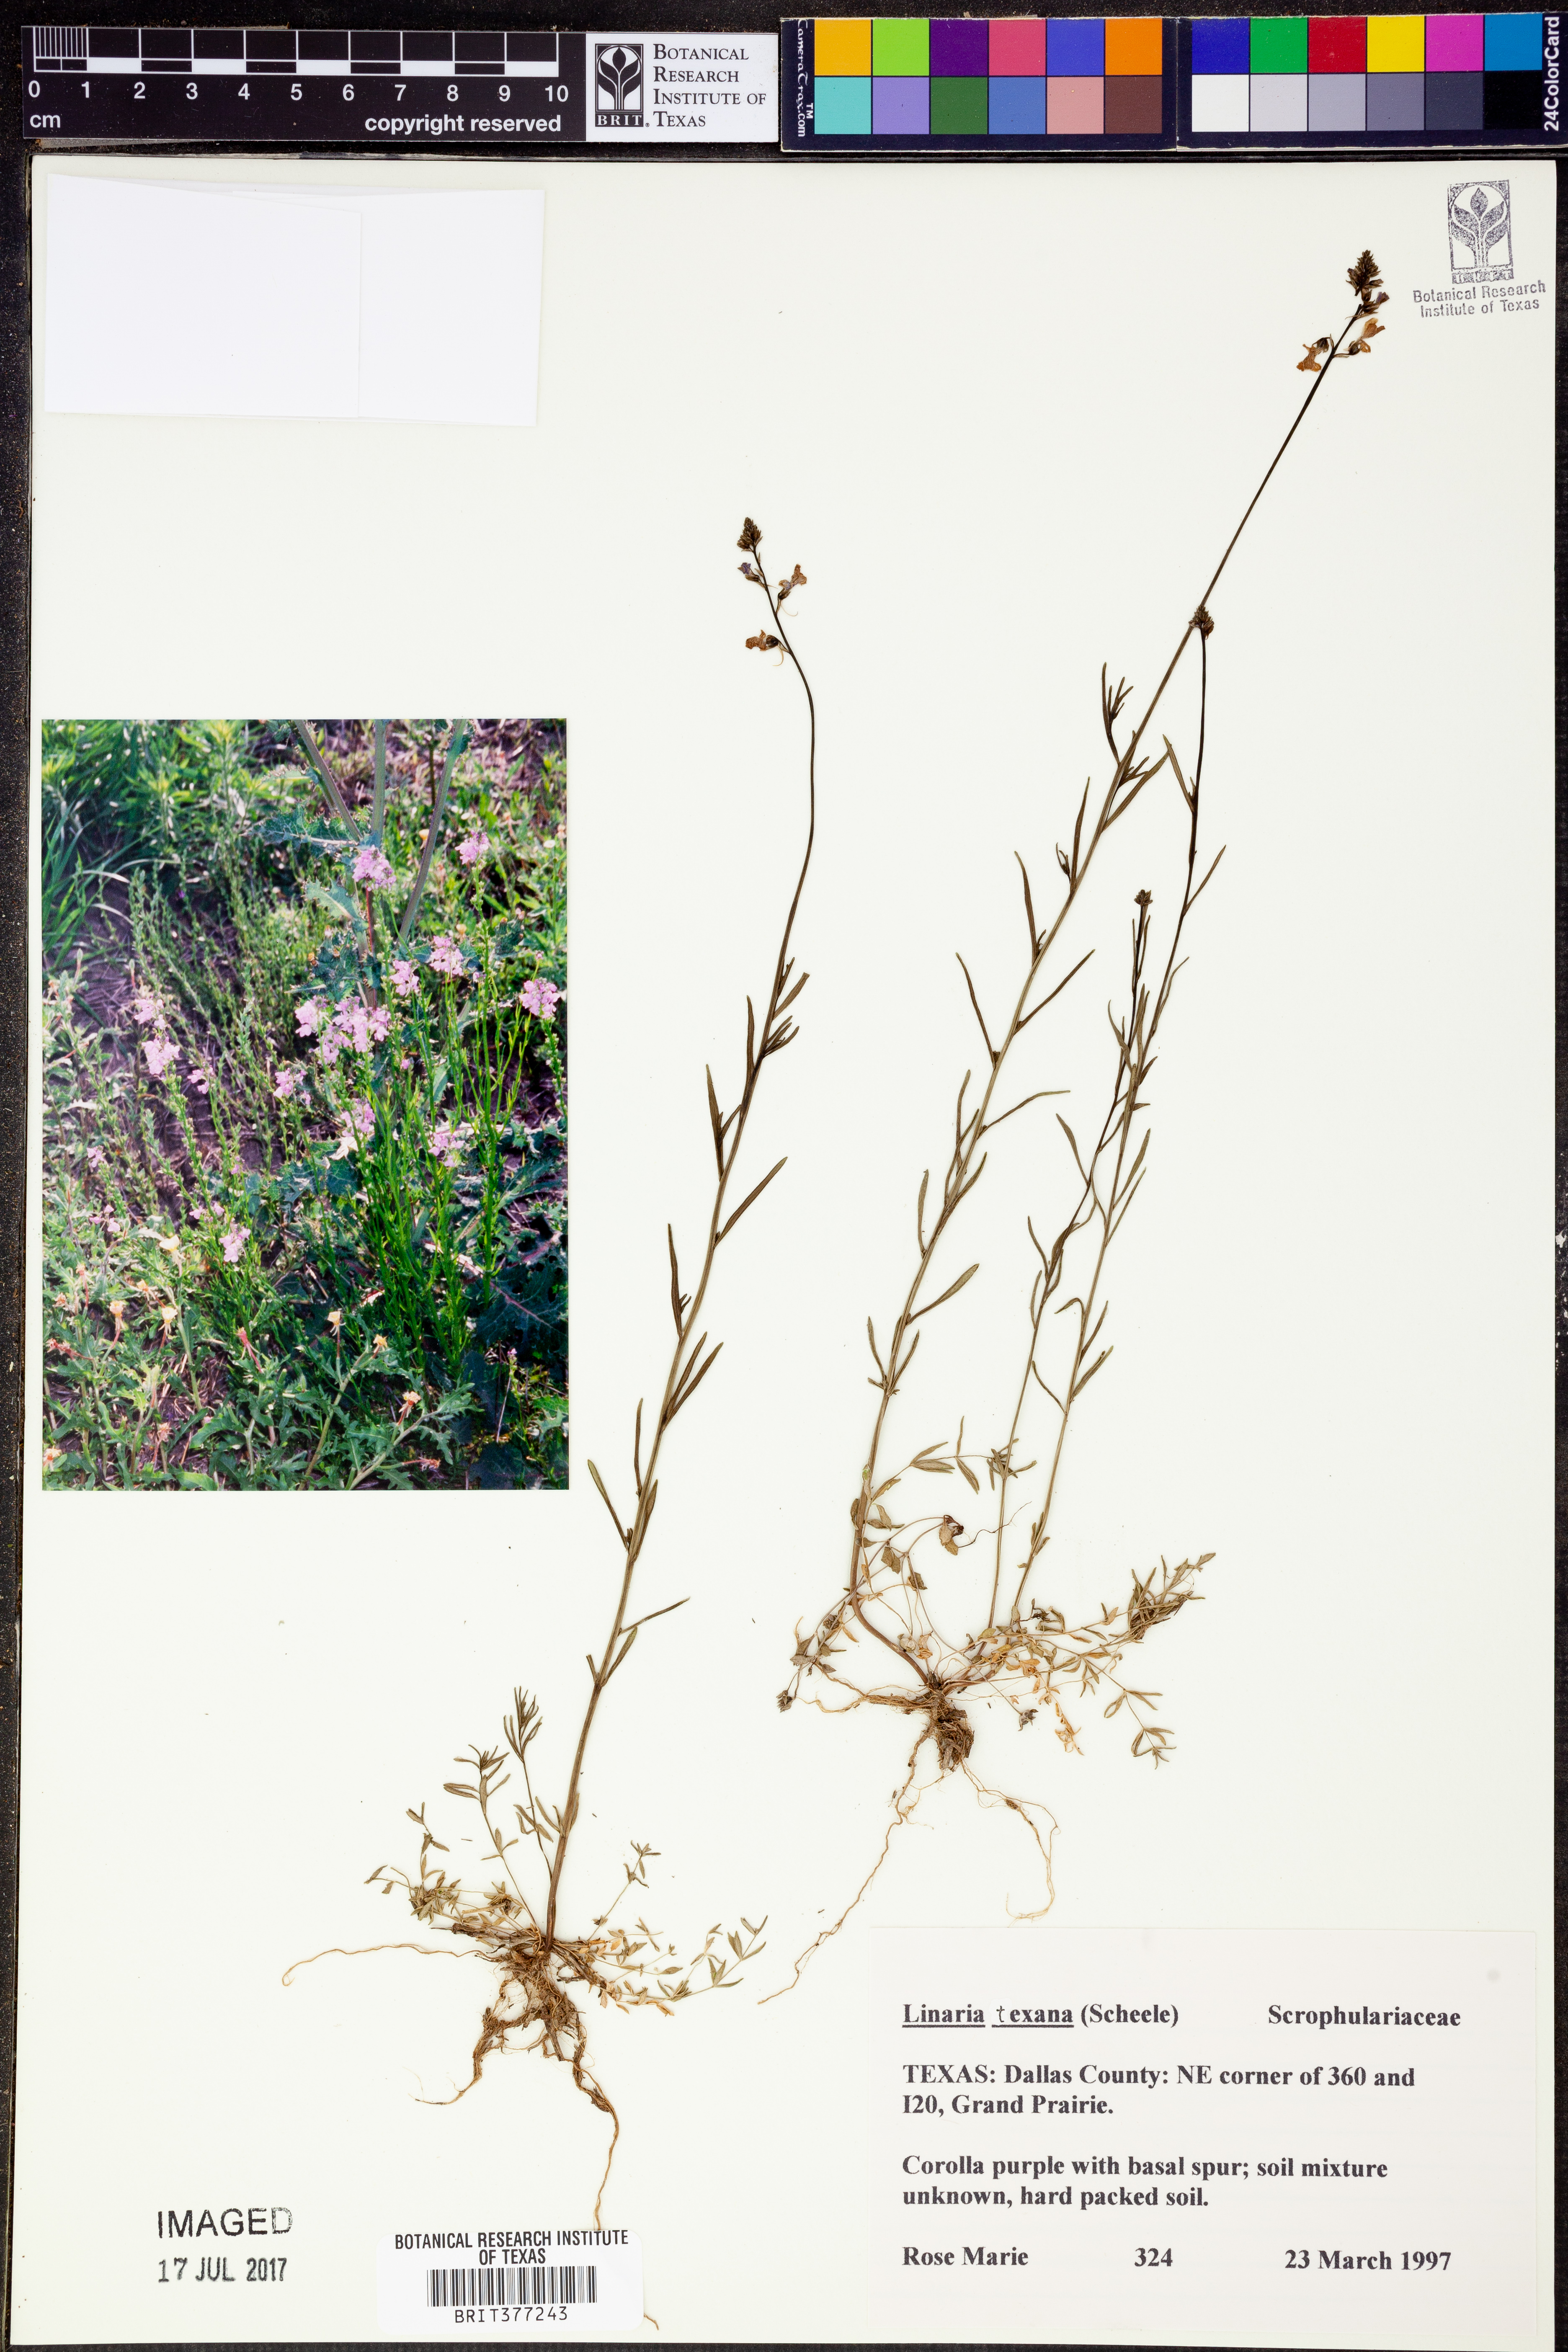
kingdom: Plantae
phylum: Tracheophyta
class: Magnoliopsida
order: Lamiales
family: Plantaginaceae
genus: Nuttallanthus
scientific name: Nuttallanthus texanus
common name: Texas toadflax
